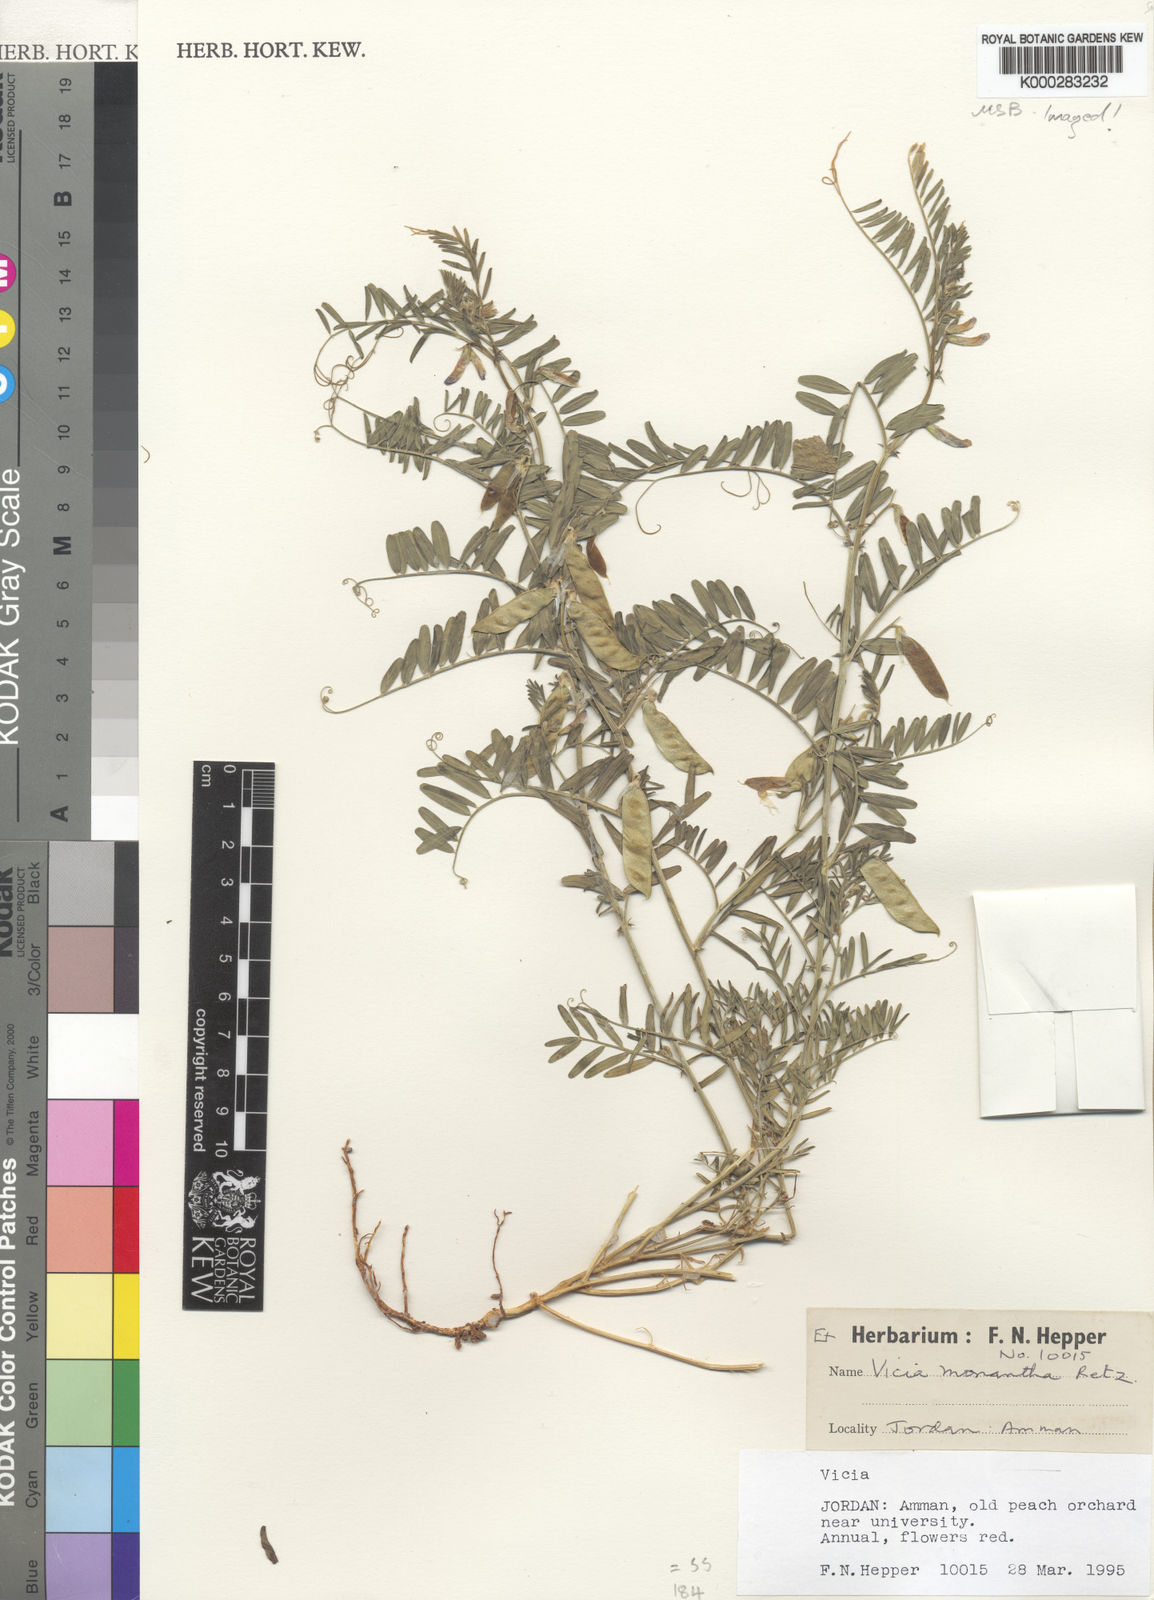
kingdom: Plantae
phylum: Tracheophyta
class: Magnoliopsida
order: Fabales
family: Fabaceae
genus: Vicia
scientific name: Vicia monantha
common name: Barn vetch
